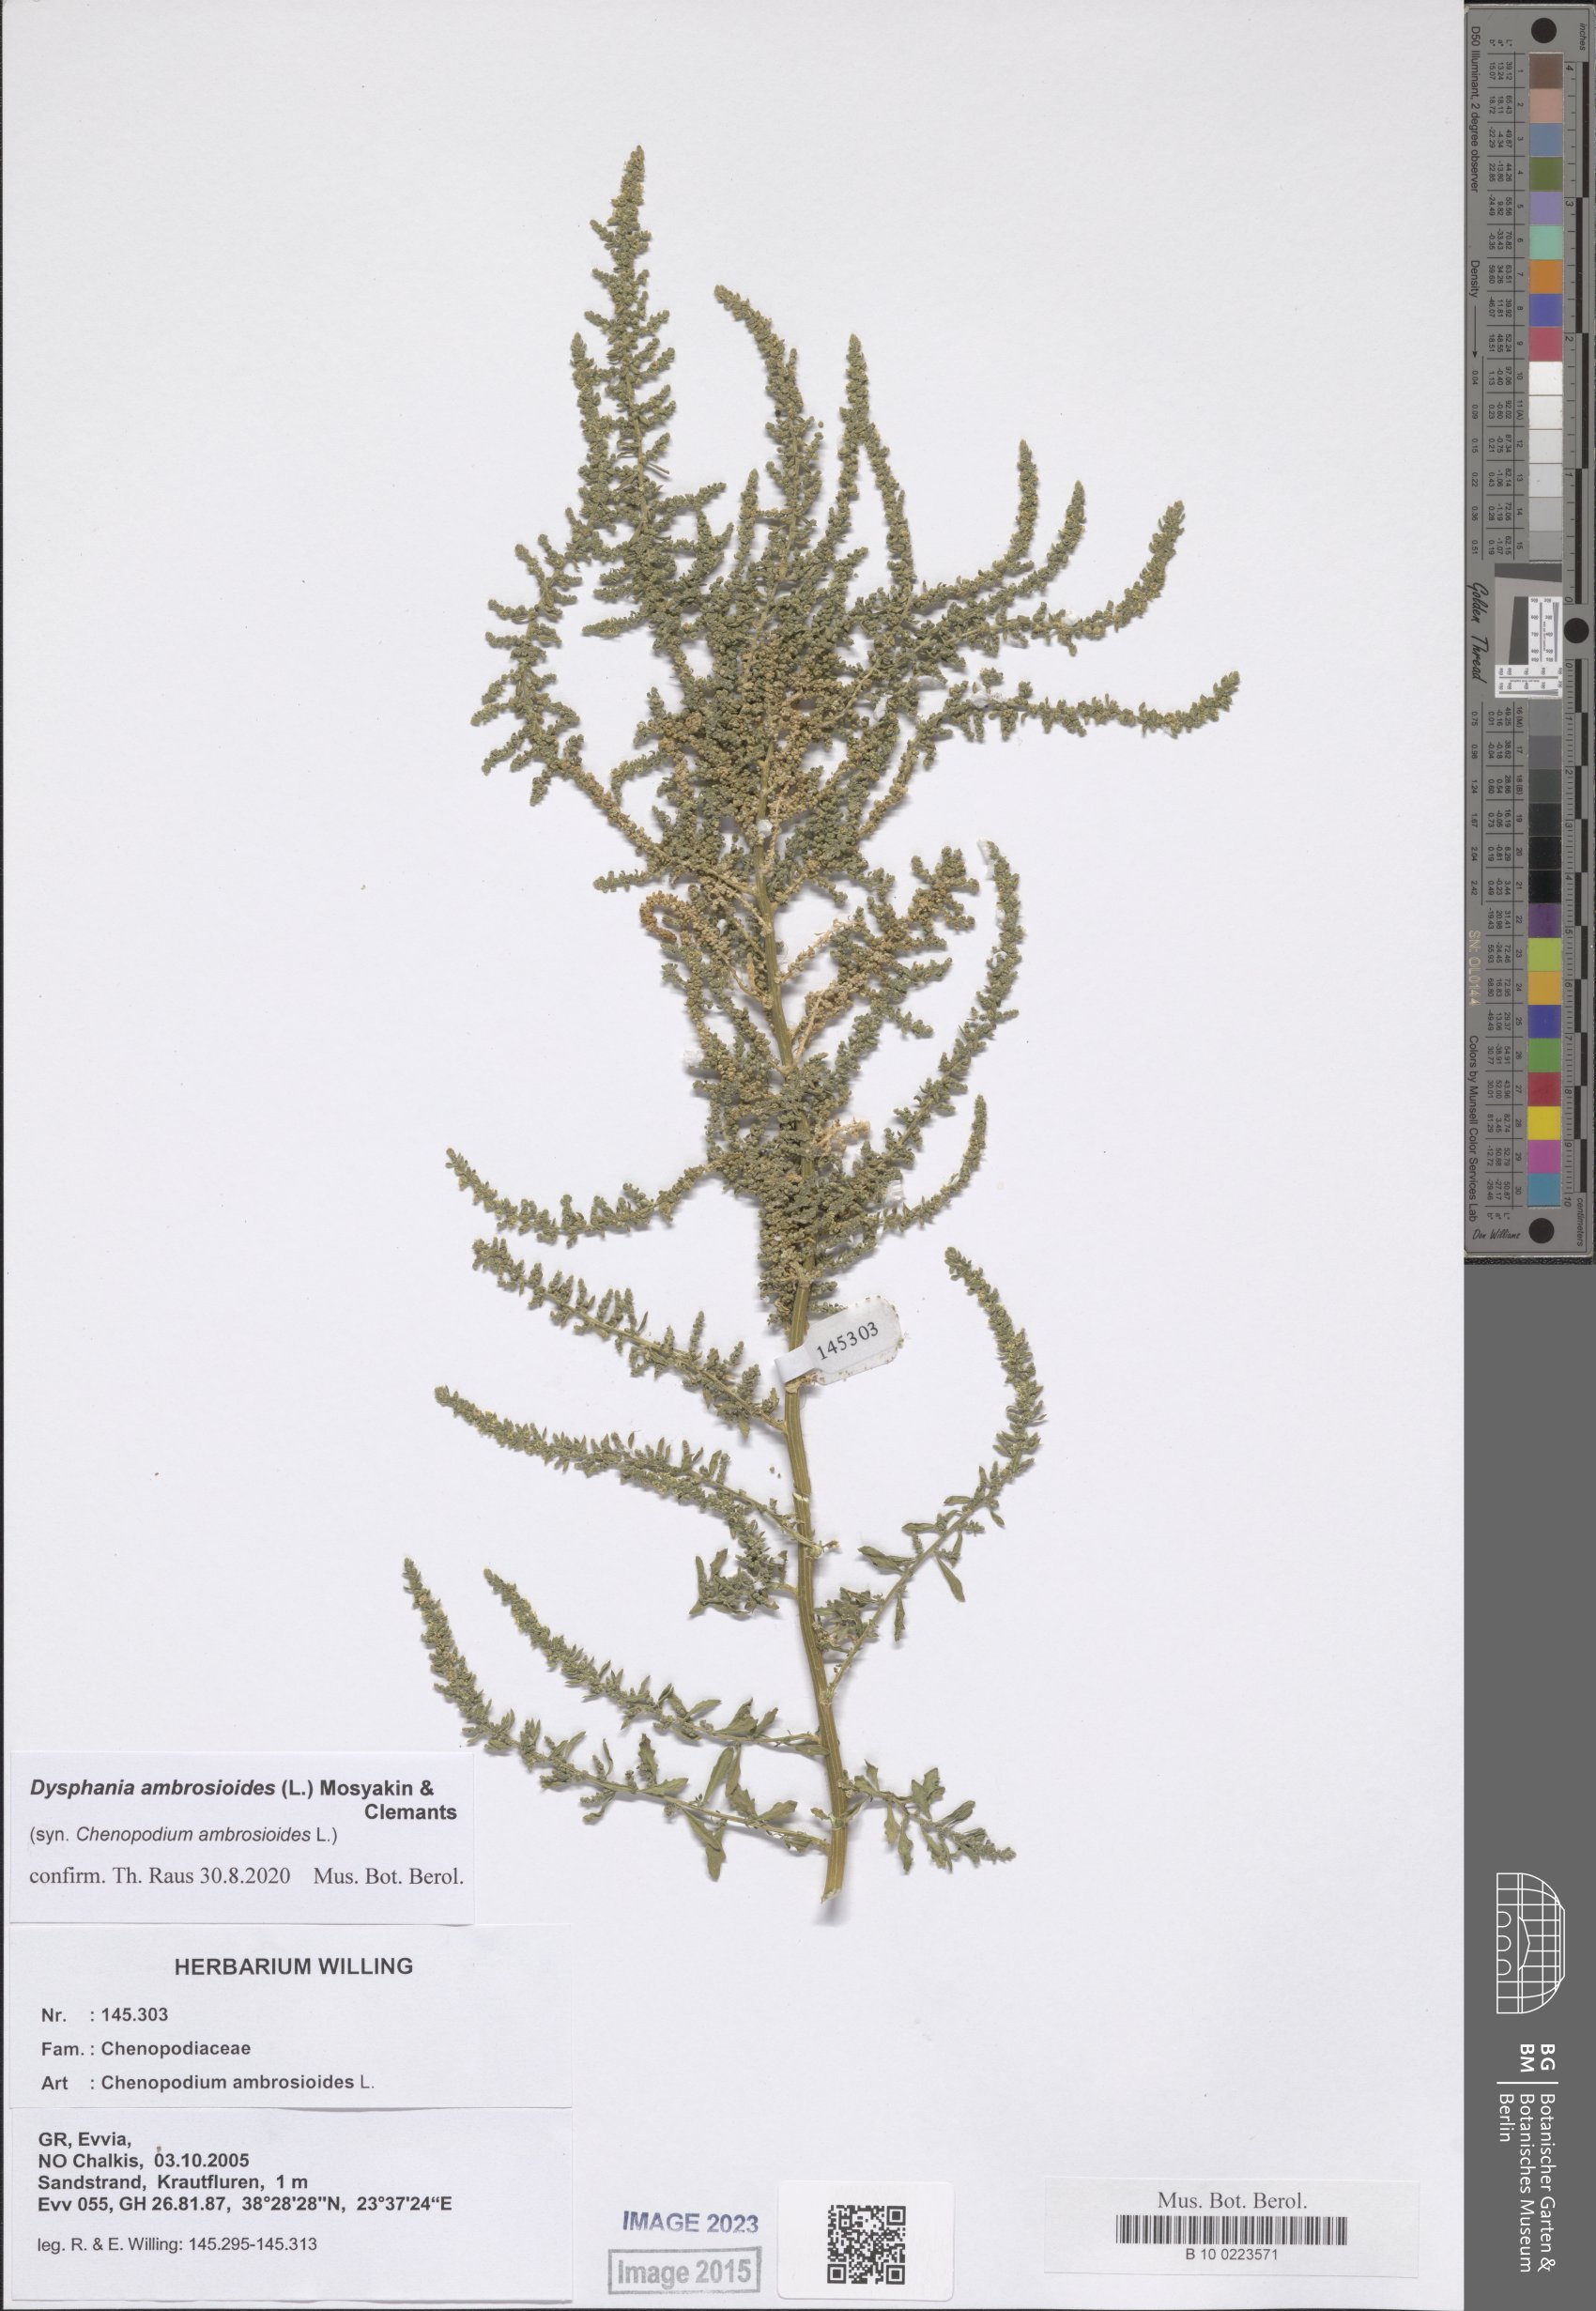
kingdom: Plantae
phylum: Tracheophyta
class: Magnoliopsida
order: Caryophyllales
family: Amaranthaceae
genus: Dysphania
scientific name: Dysphania ambrosioides
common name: Wormseed
